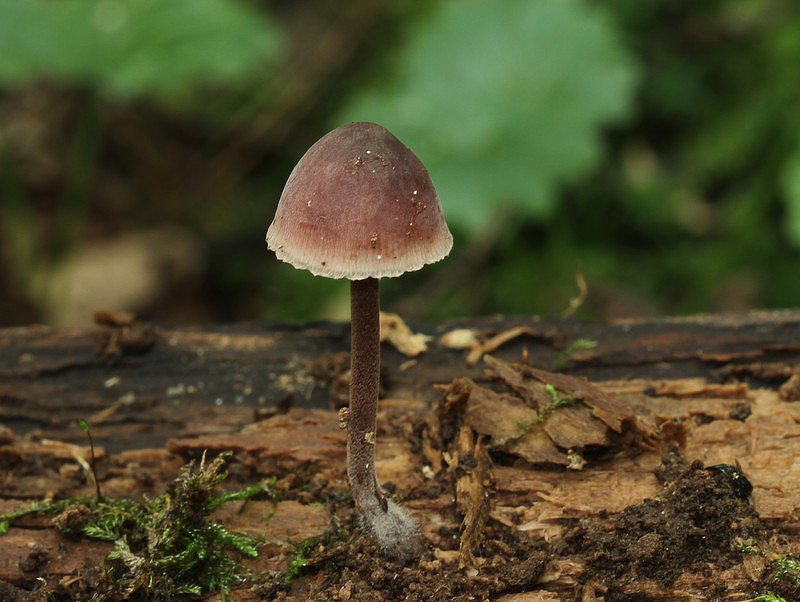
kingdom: Fungi
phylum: Basidiomycota
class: Agaricomycetes
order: Agaricales
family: Mycenaceae
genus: Mycena
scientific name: Mycena haematopus
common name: blødende huesvamp
